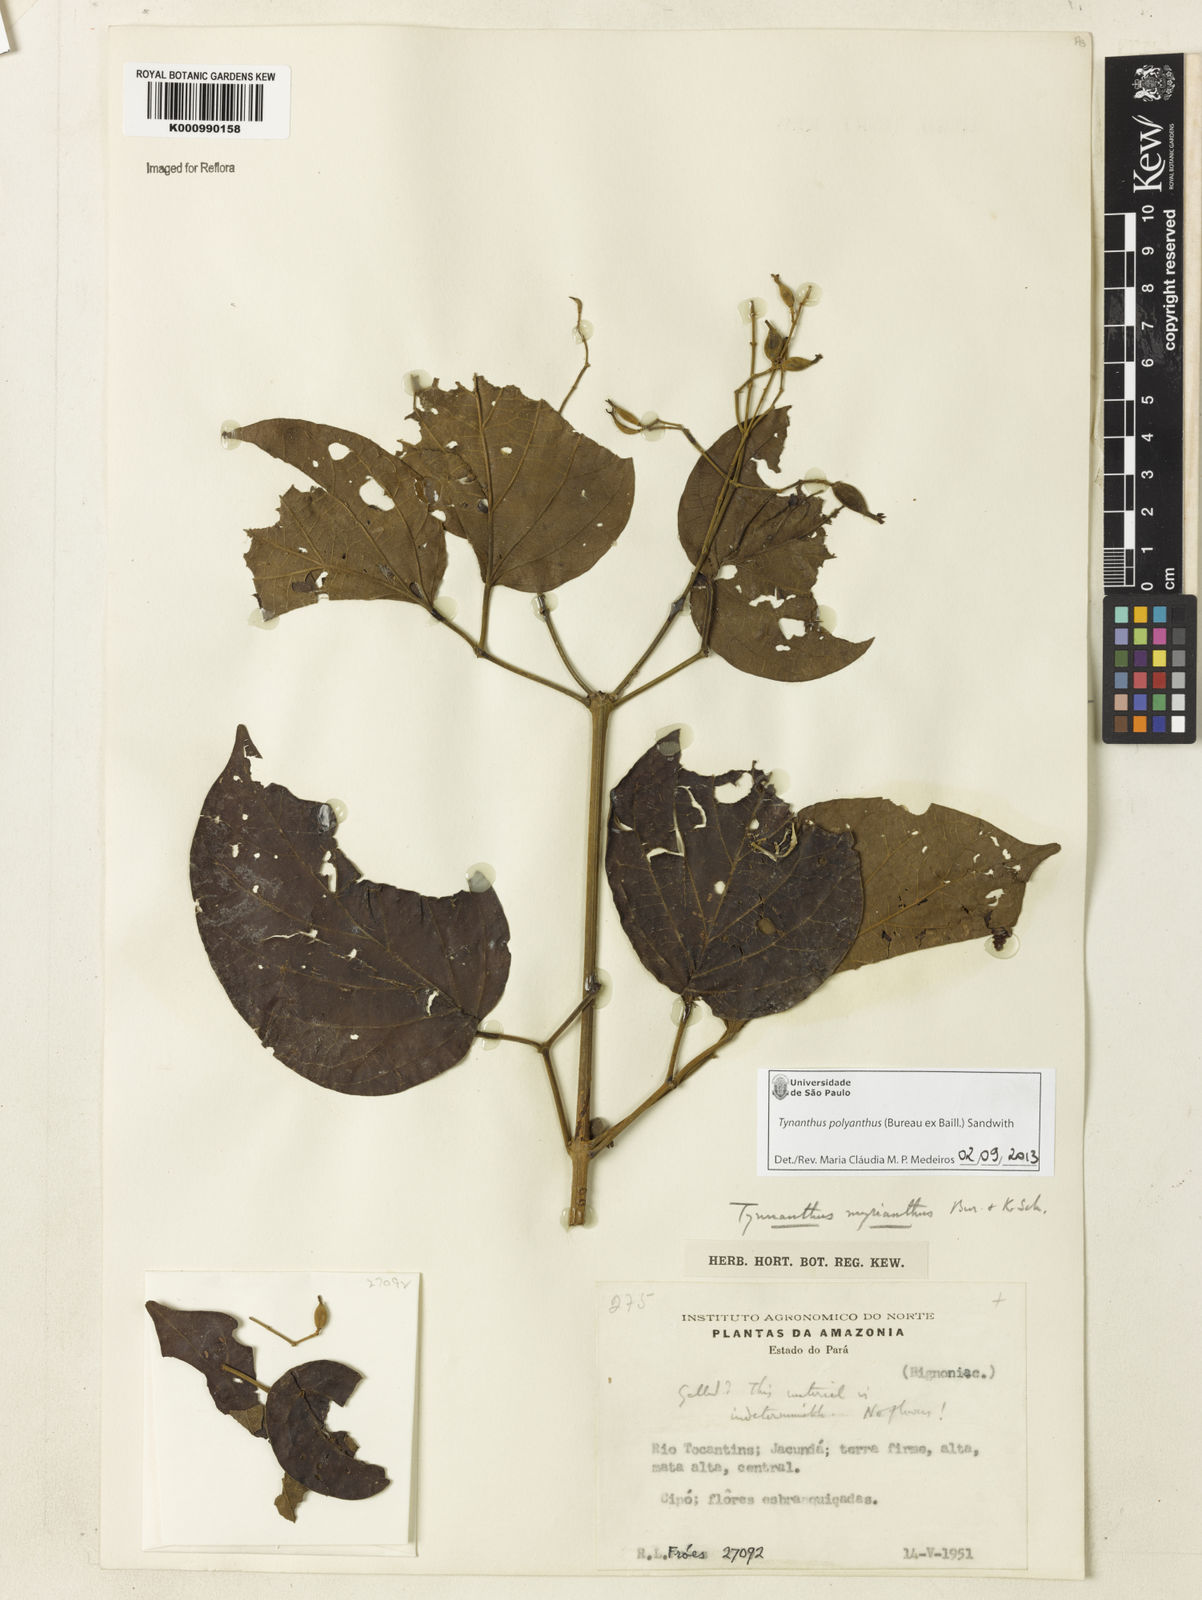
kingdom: Plantae
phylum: Tracheophyta
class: Magnoliopsida
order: Lamiales
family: Bignoniaceae
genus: Tynanthus
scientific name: Tynanthus polyanthus
